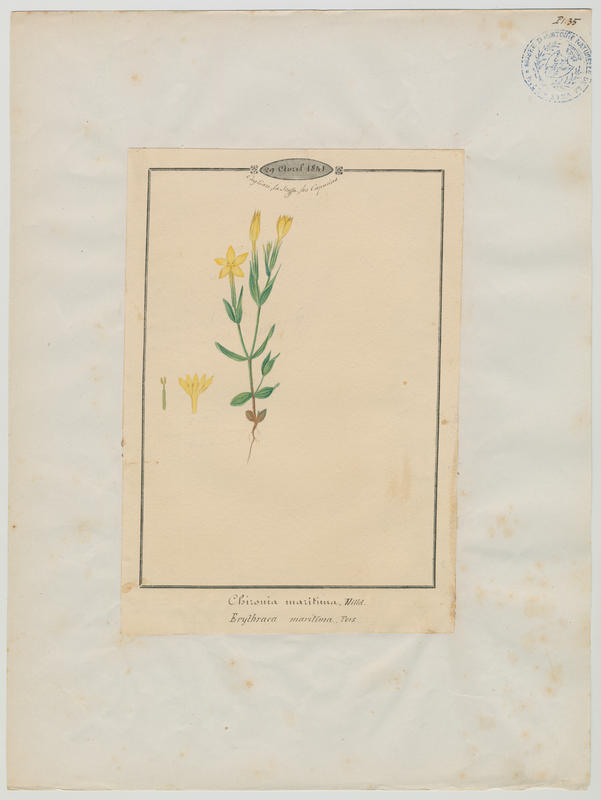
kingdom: Plantae
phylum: Tracheophyta
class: Magnoliopsida
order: Gentianales
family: Gentianaceae
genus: Centaurium
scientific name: Centaurium maritimum
